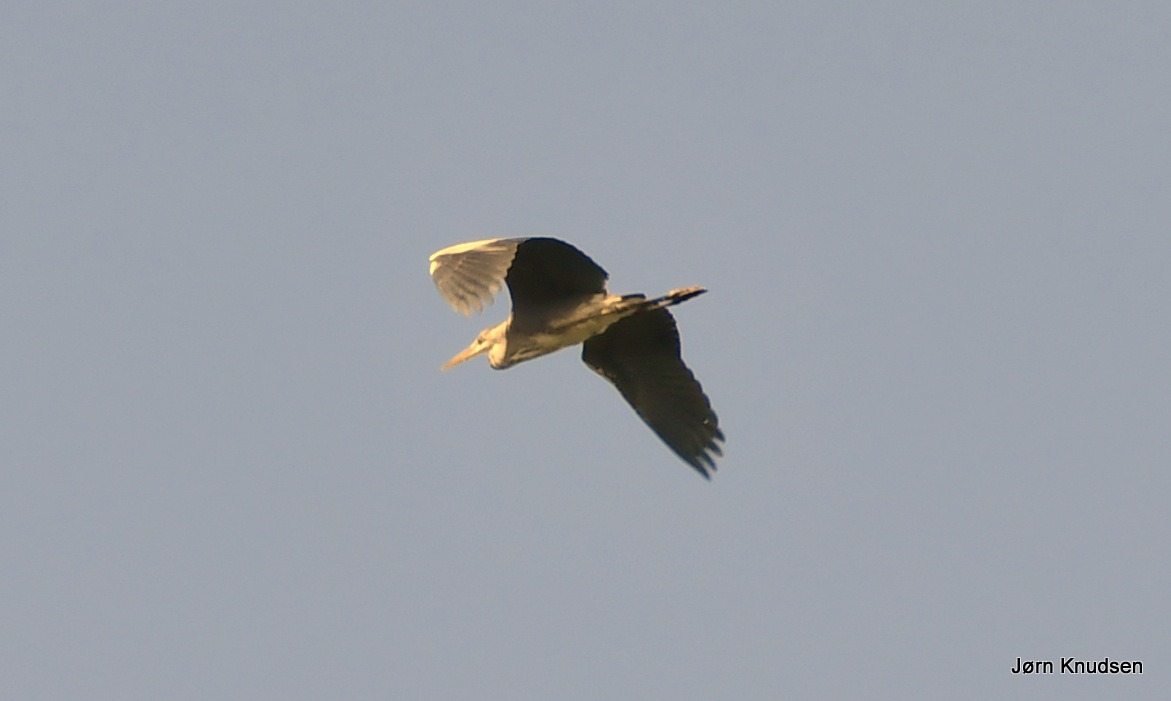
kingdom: Animalia
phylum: Chordata
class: Aves
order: Pelecaniformes
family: Ardeidae
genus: Ardea
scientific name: Ardea cinerea
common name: Fiskehejre
